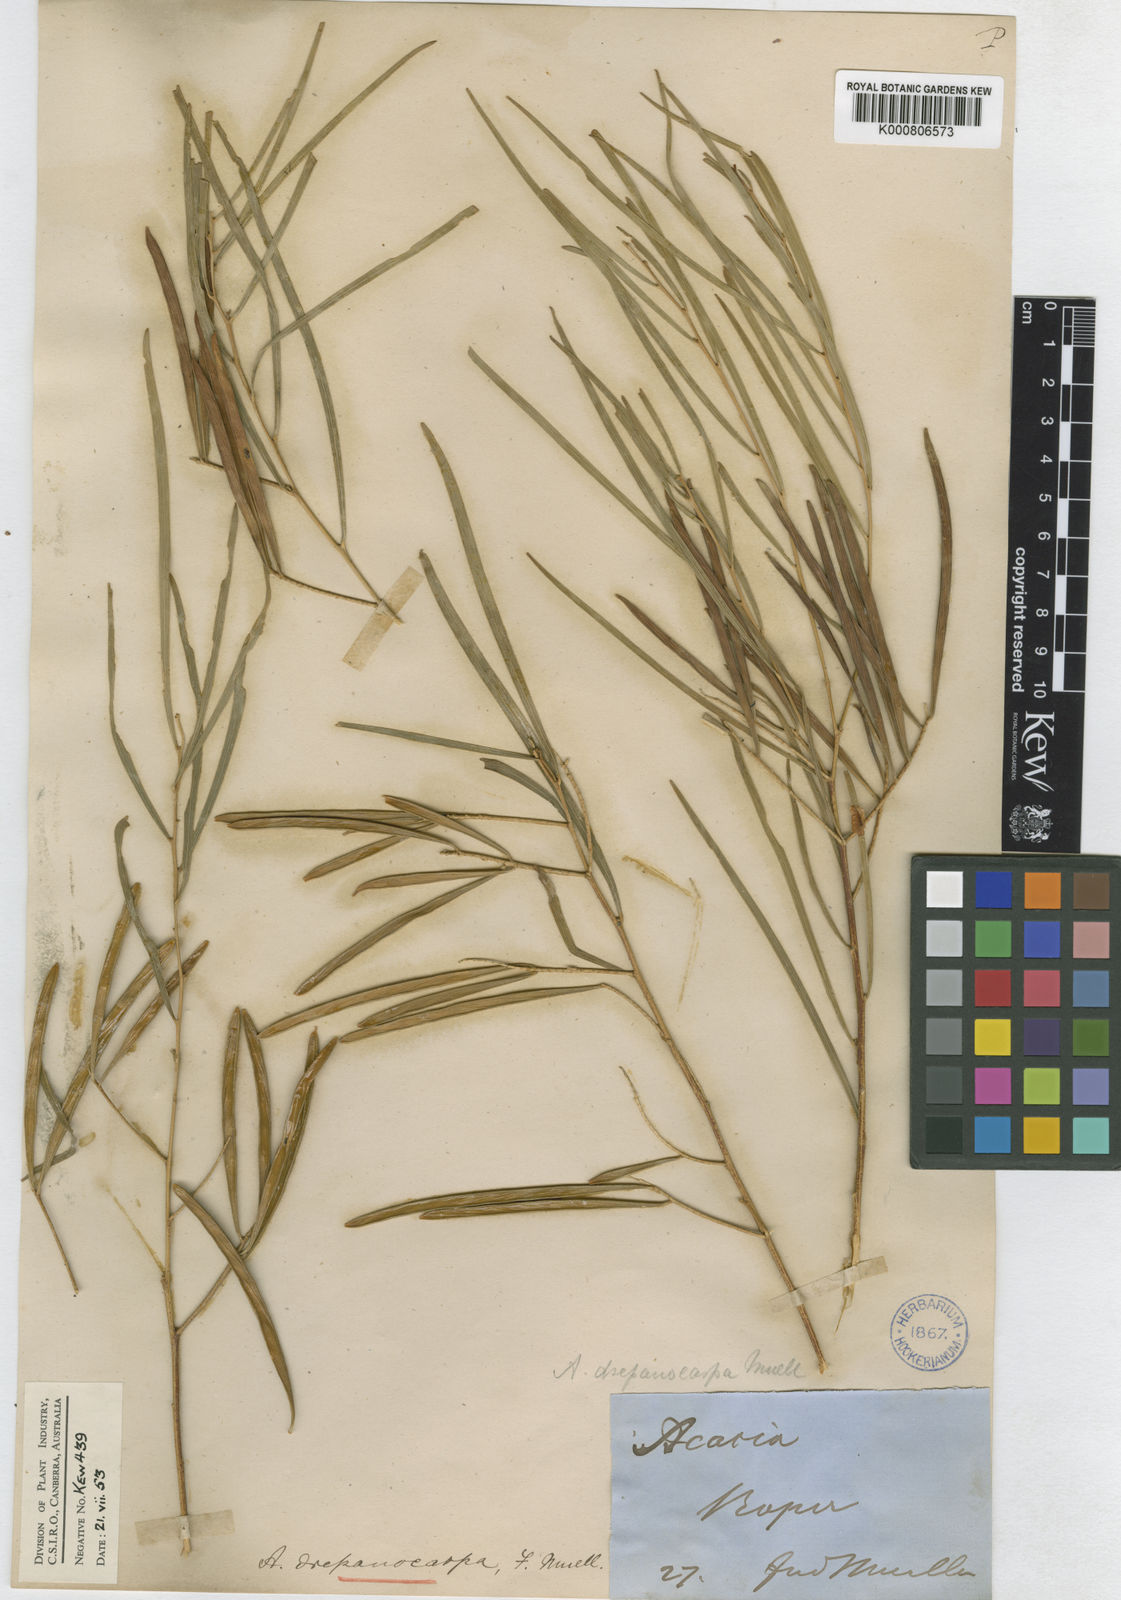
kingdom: Plantae
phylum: Tracheophyta
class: Magnoliopsida
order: Fabales
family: Fabaceae
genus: Acacia
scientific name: Acacia drepanocarpa
